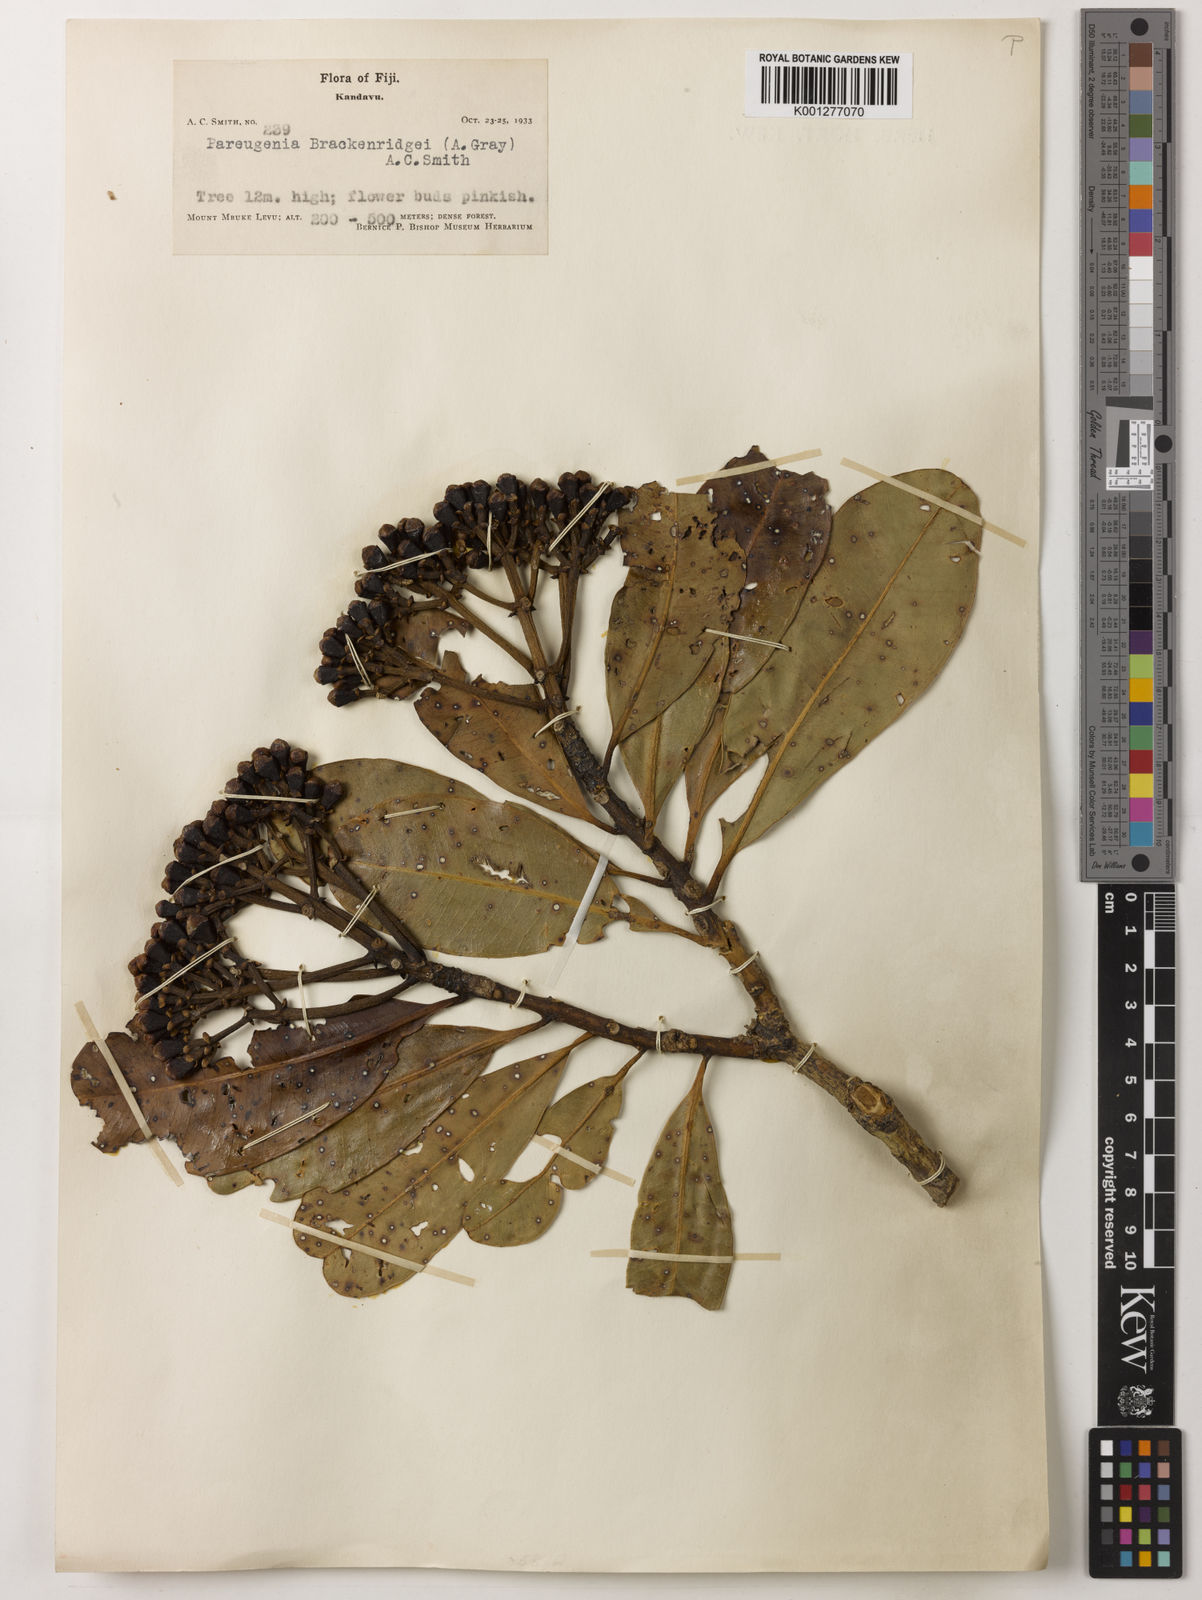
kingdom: Plantae
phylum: Tracheophyta
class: Magnoliopsida
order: Myrtales
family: Myrtaceae
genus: Syzygium
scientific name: Syzygium
